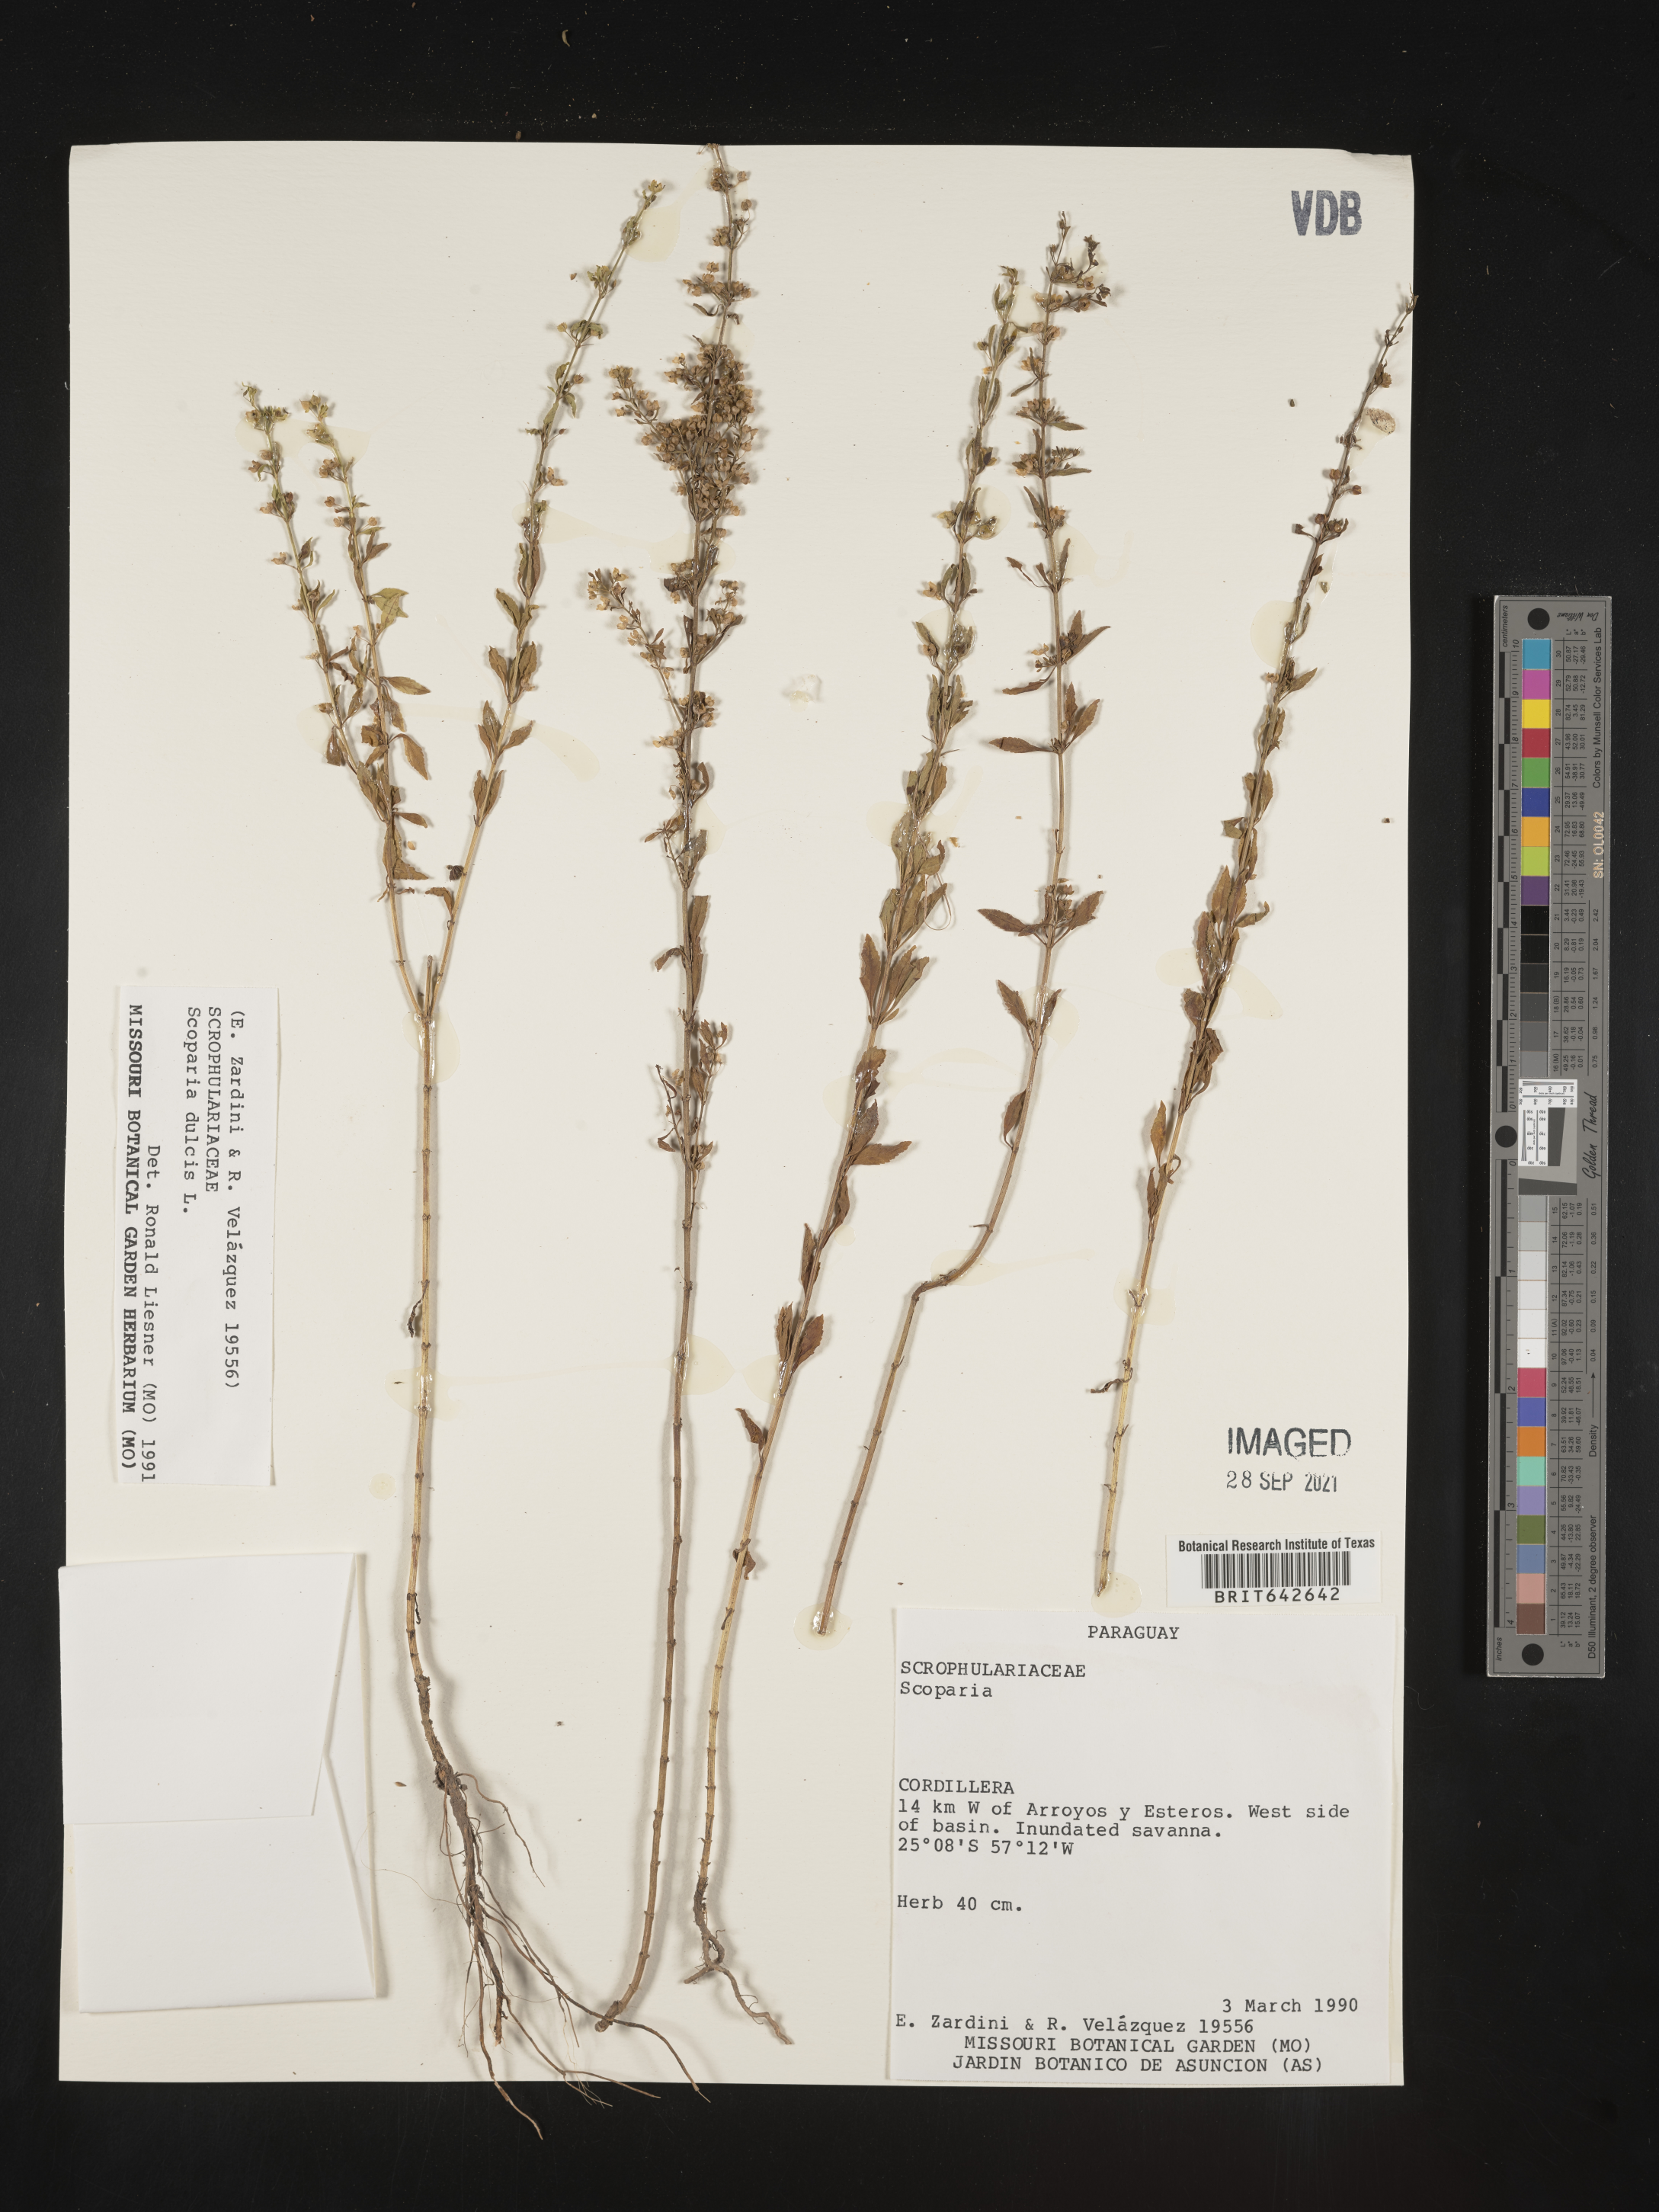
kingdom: Plantae
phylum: Tracheophyta
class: Magnoliopsida
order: Lamiales
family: Plantaginaceae
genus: Scoparia
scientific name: Scoparia
